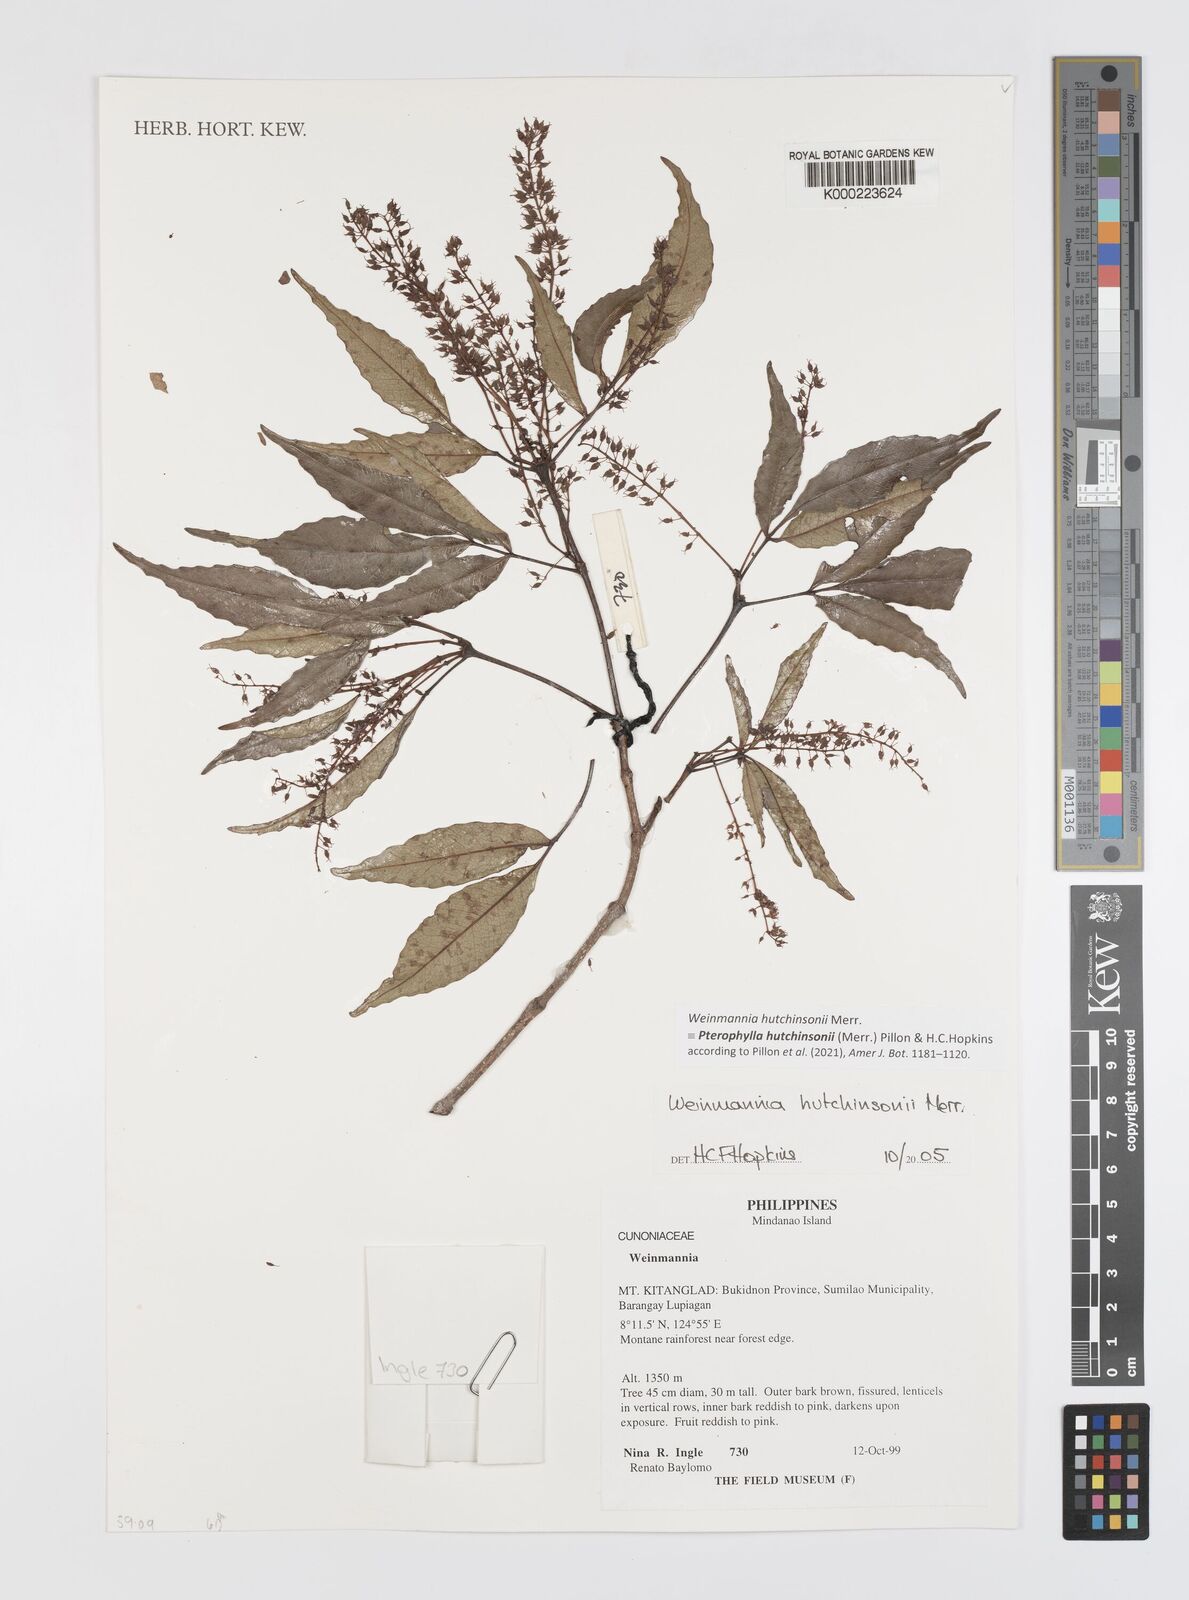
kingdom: Plantae
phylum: Tracheophyta
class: Magnoliopsida
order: Oxalidales
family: Cunoniaceae
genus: Pterophylla
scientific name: Pterophylla hutchinsonii
